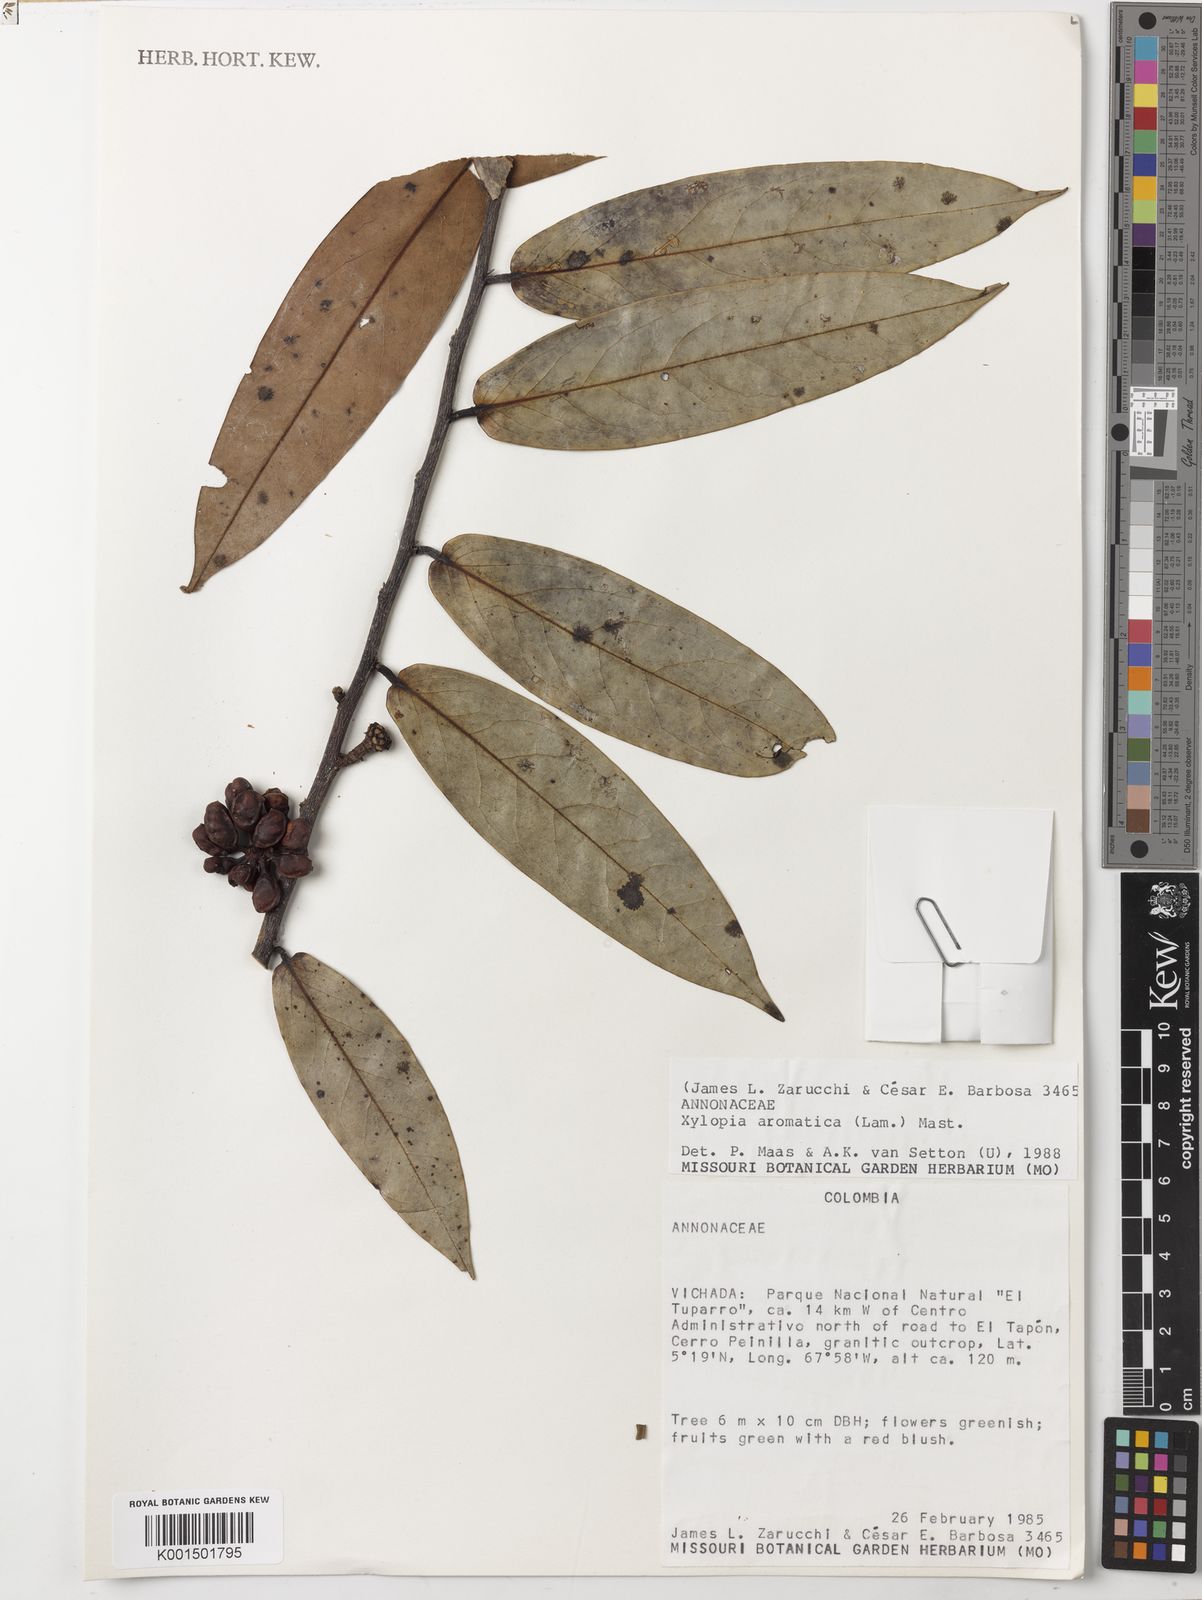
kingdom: Plantae
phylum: Tracheophyta
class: Magnoliopsida
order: Magnoliales
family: Annonaceae
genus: Xylopia
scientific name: Xylopia aromatica
